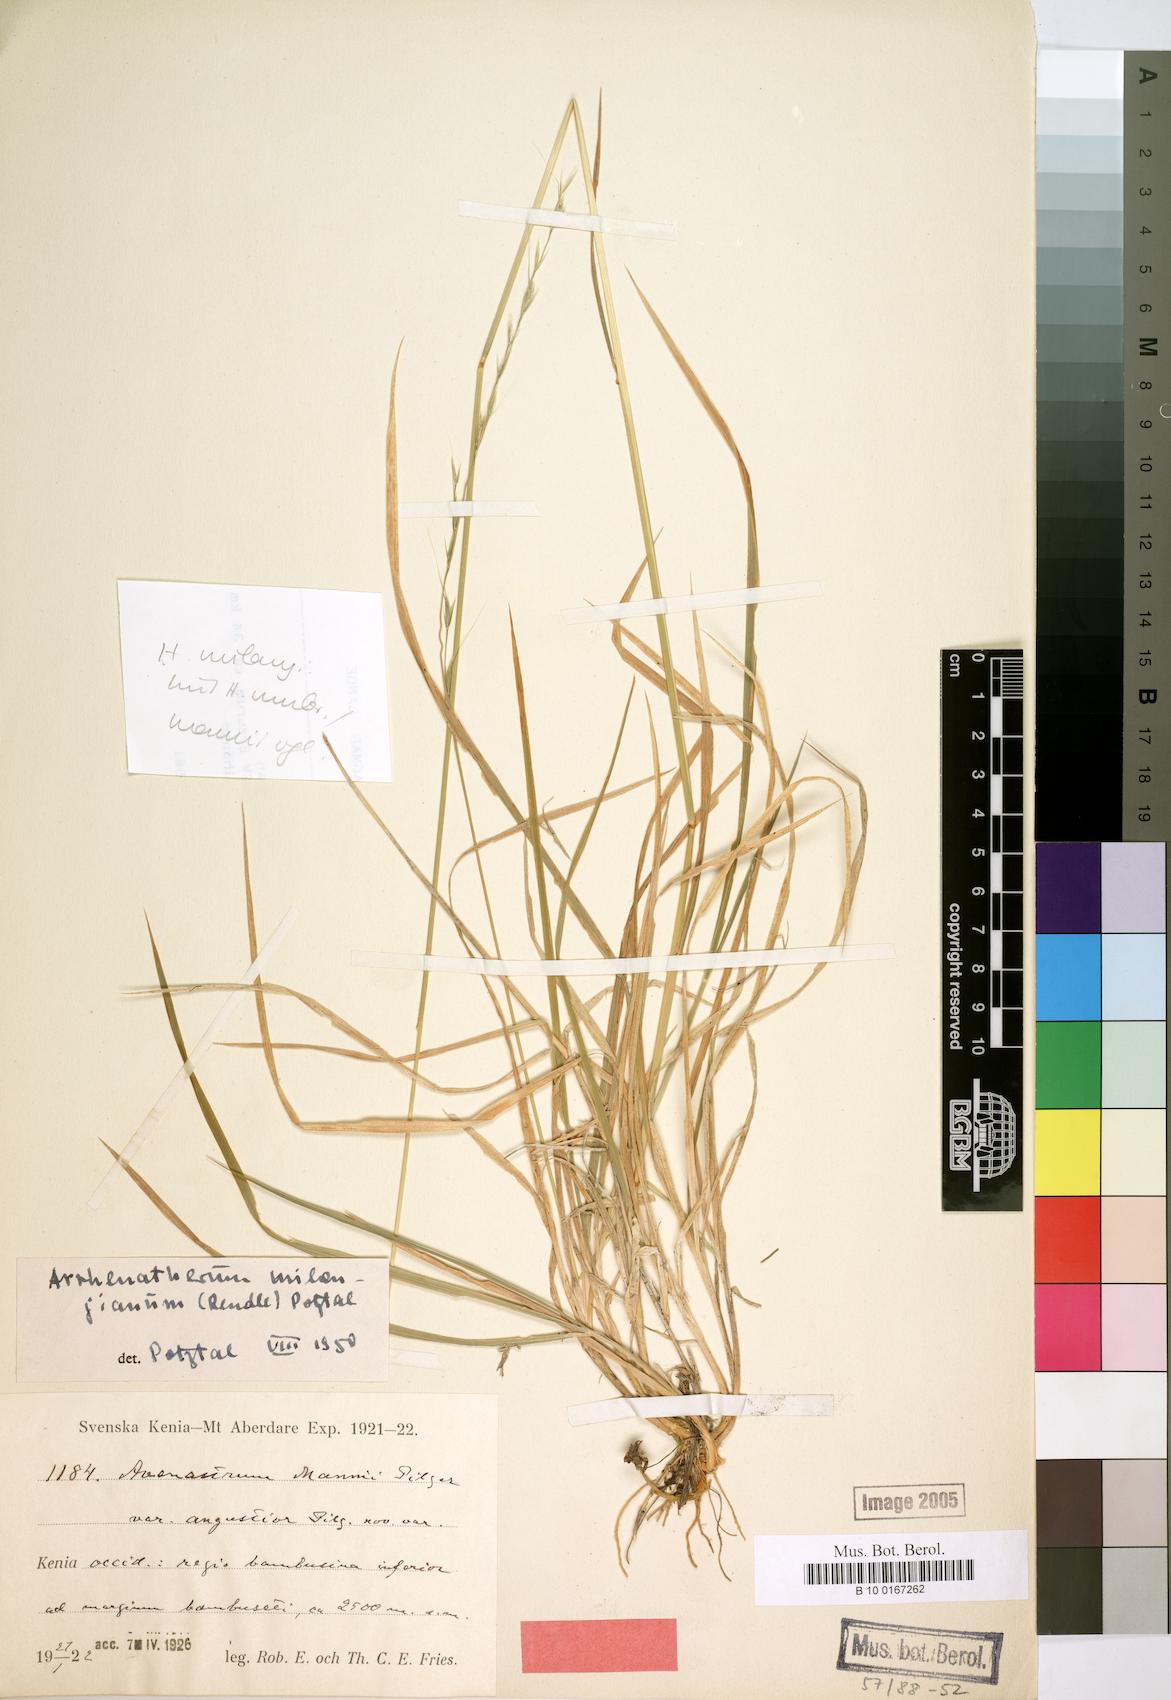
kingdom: Plantae
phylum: Tracheophyta
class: Liliopsida
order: Poales
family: Poaceae
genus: Trisetopsis
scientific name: Trisetopsis milanjiana
